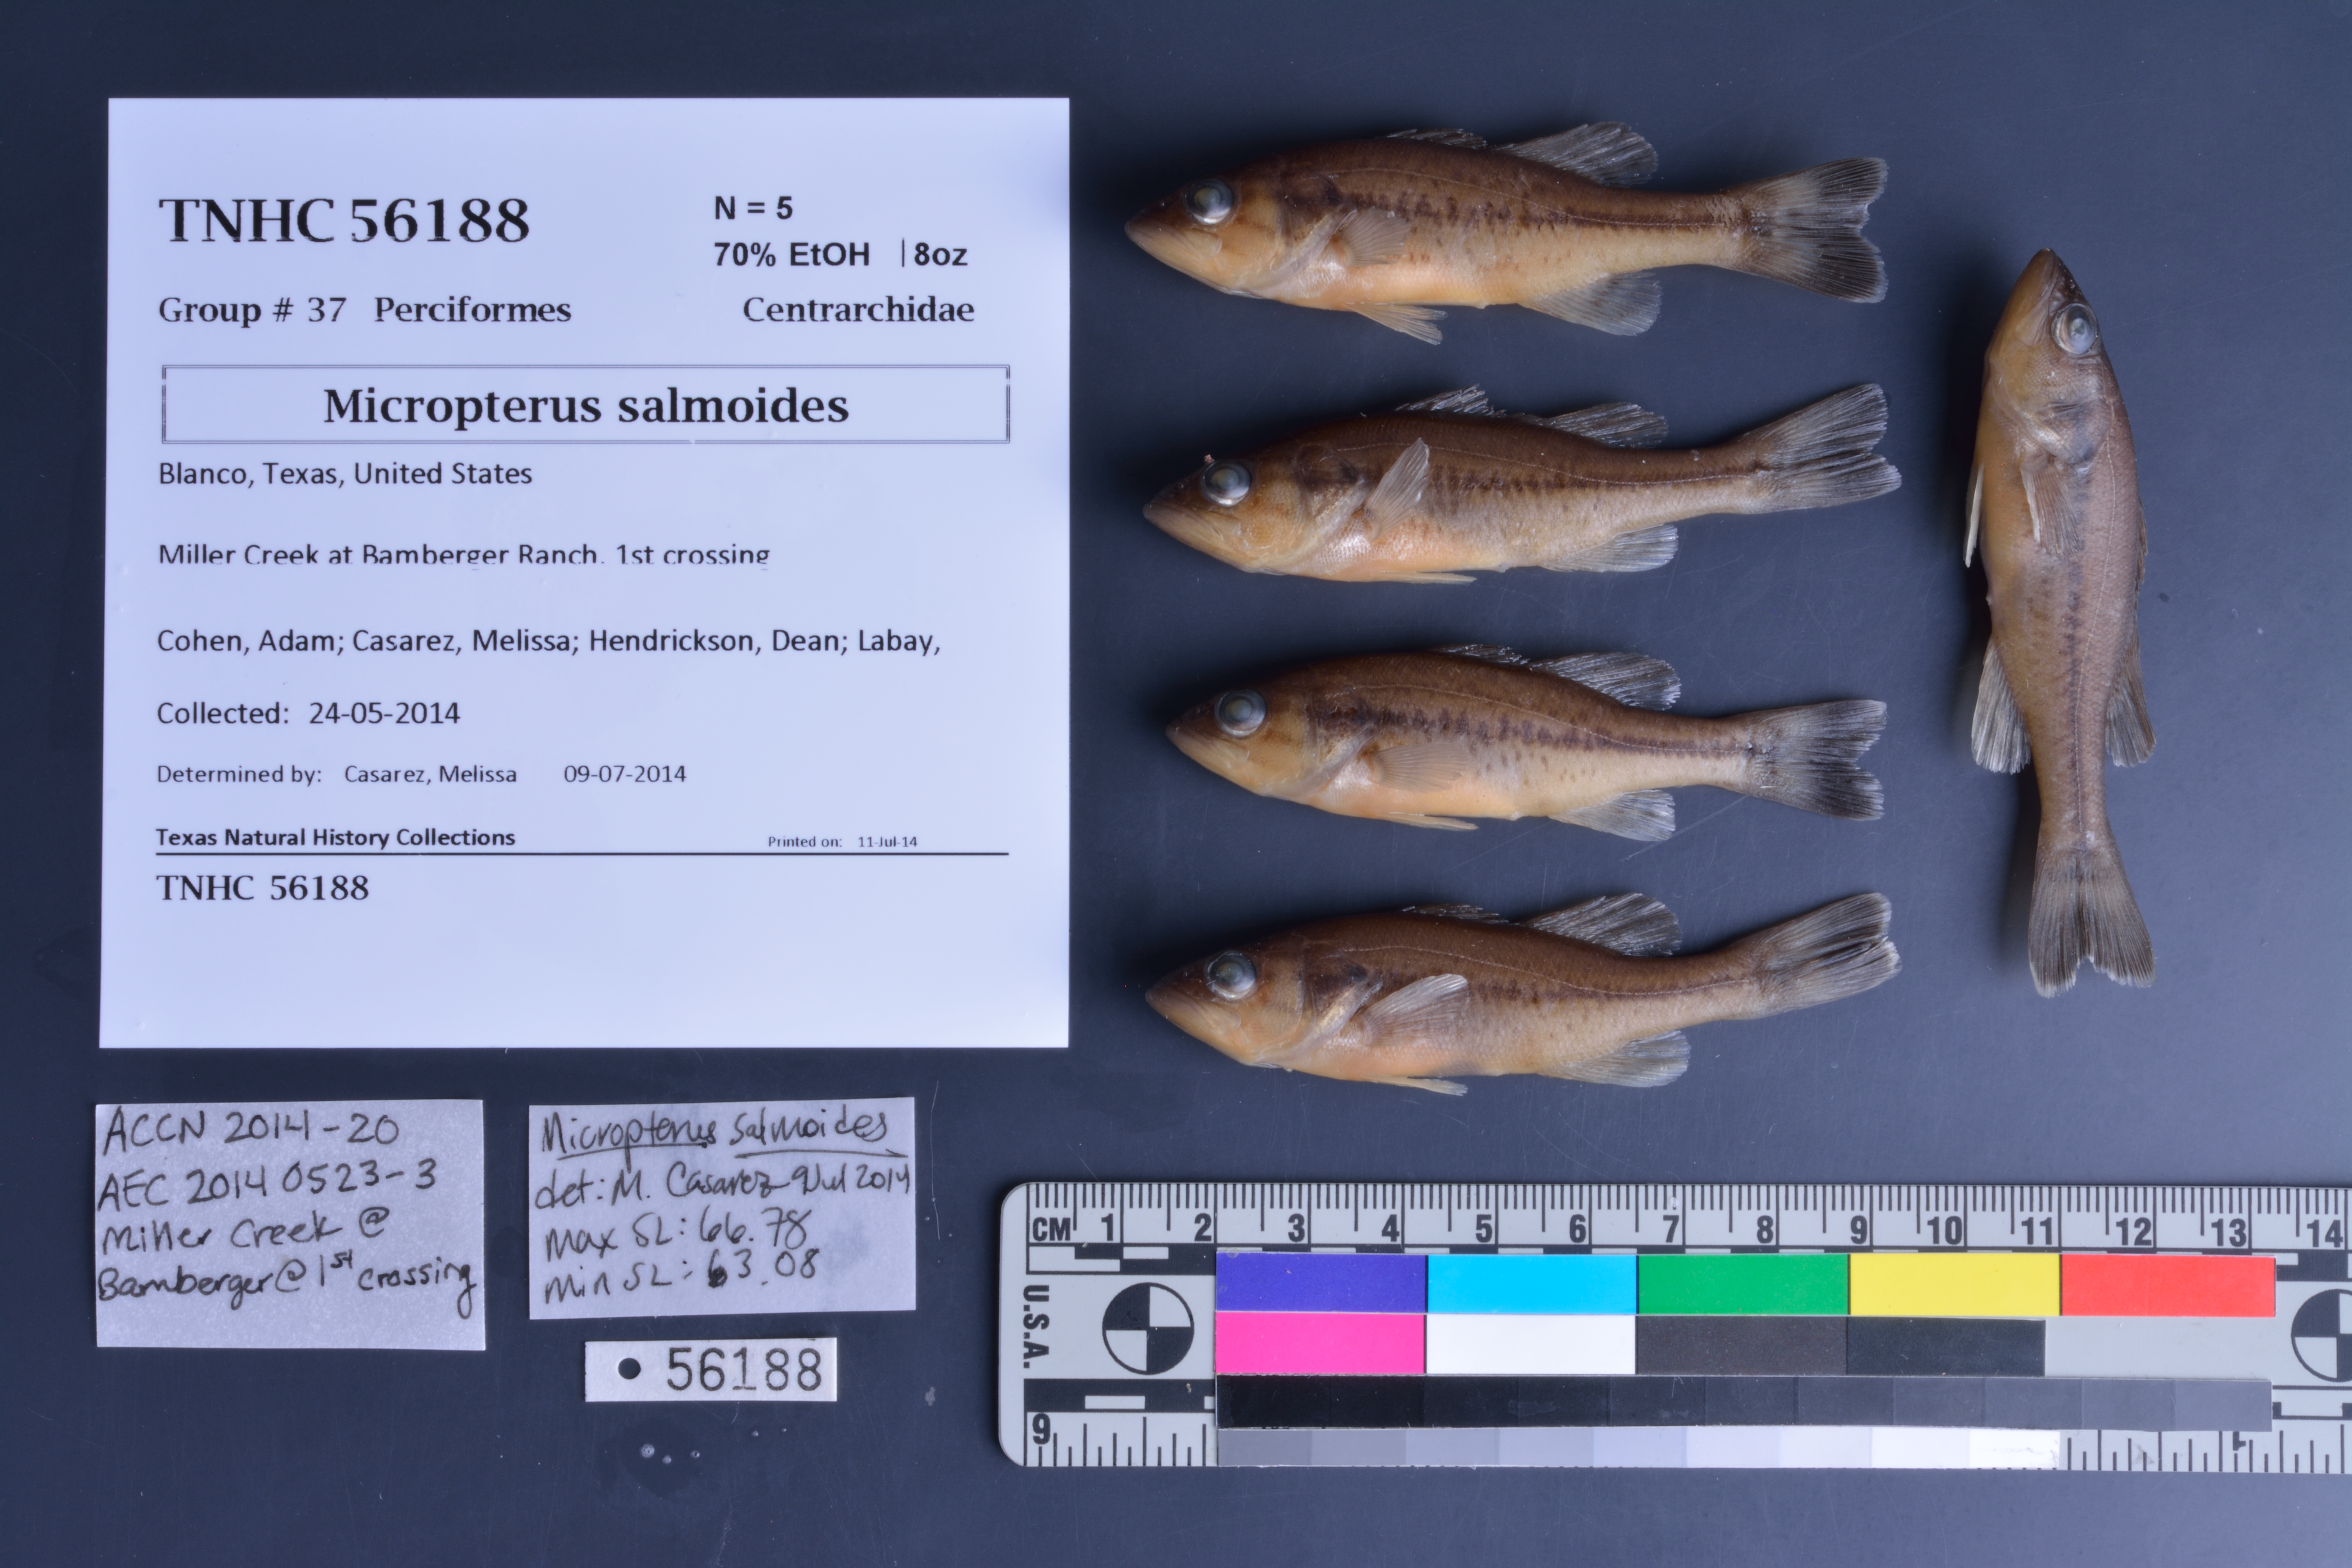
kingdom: Animalia
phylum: Chordata
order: Perciformes
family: Centrarchidae
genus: Micropterus
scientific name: Micropterus salmoides
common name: Largemouth bass
